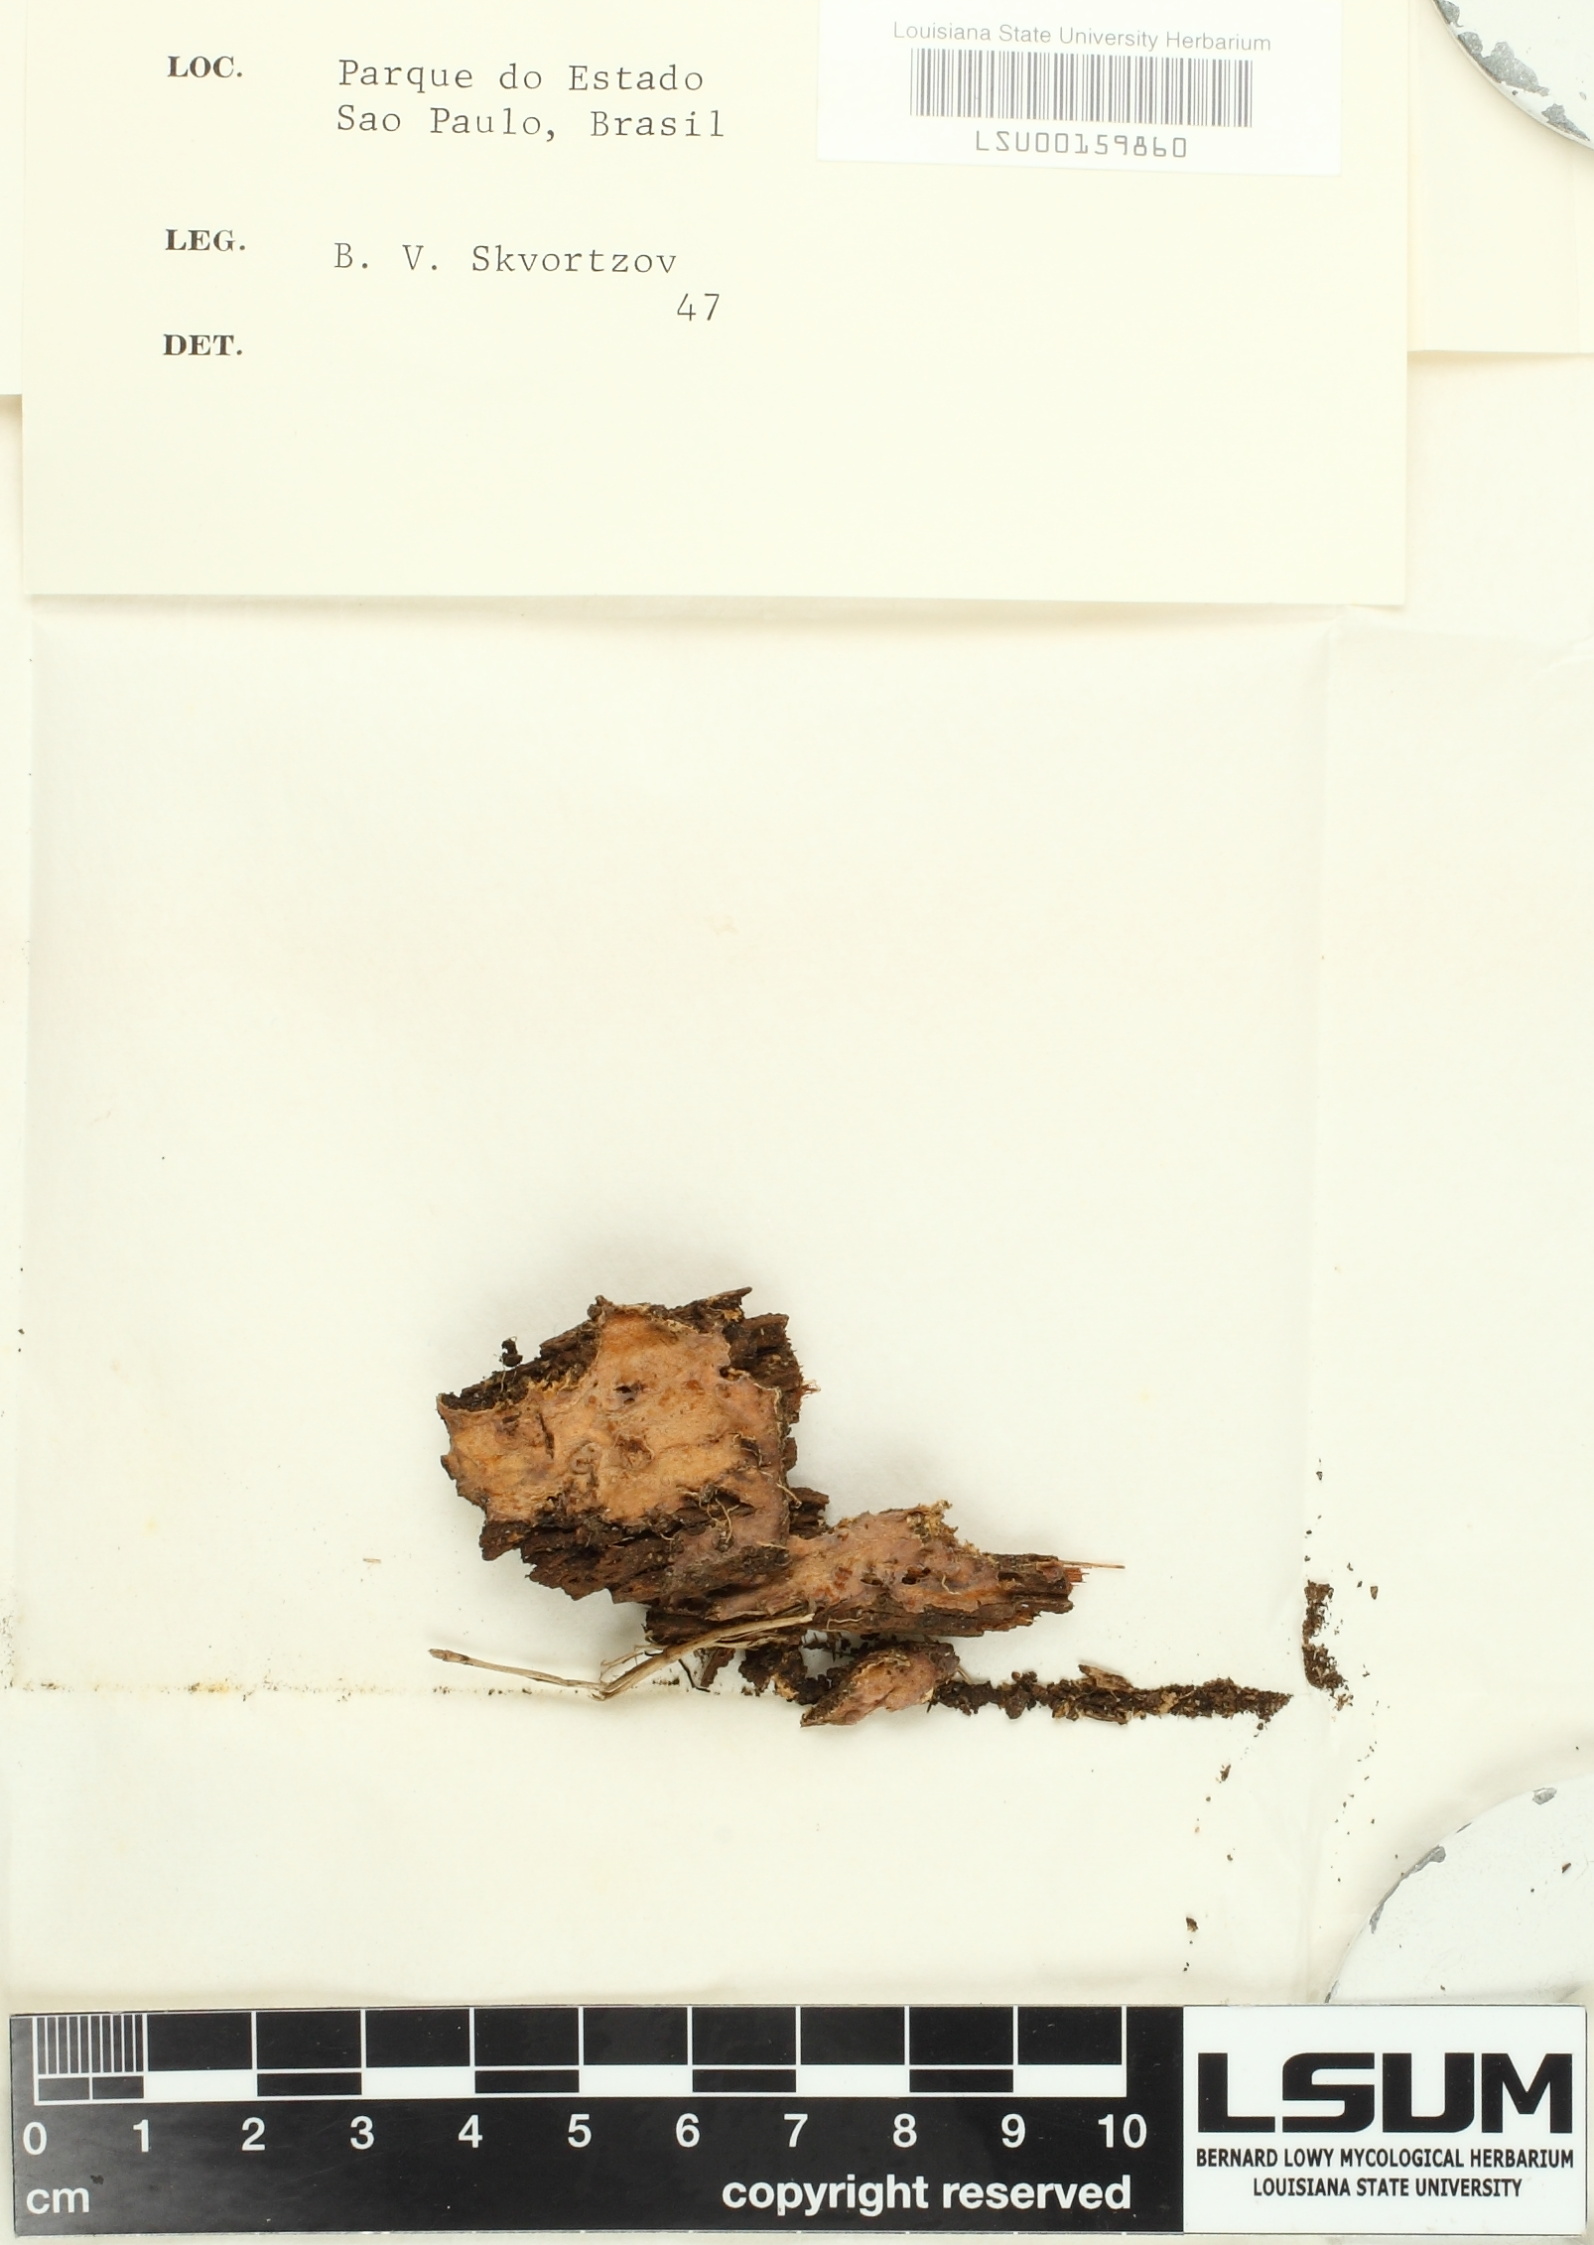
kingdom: Fungi
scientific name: Fungi
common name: Fungi
